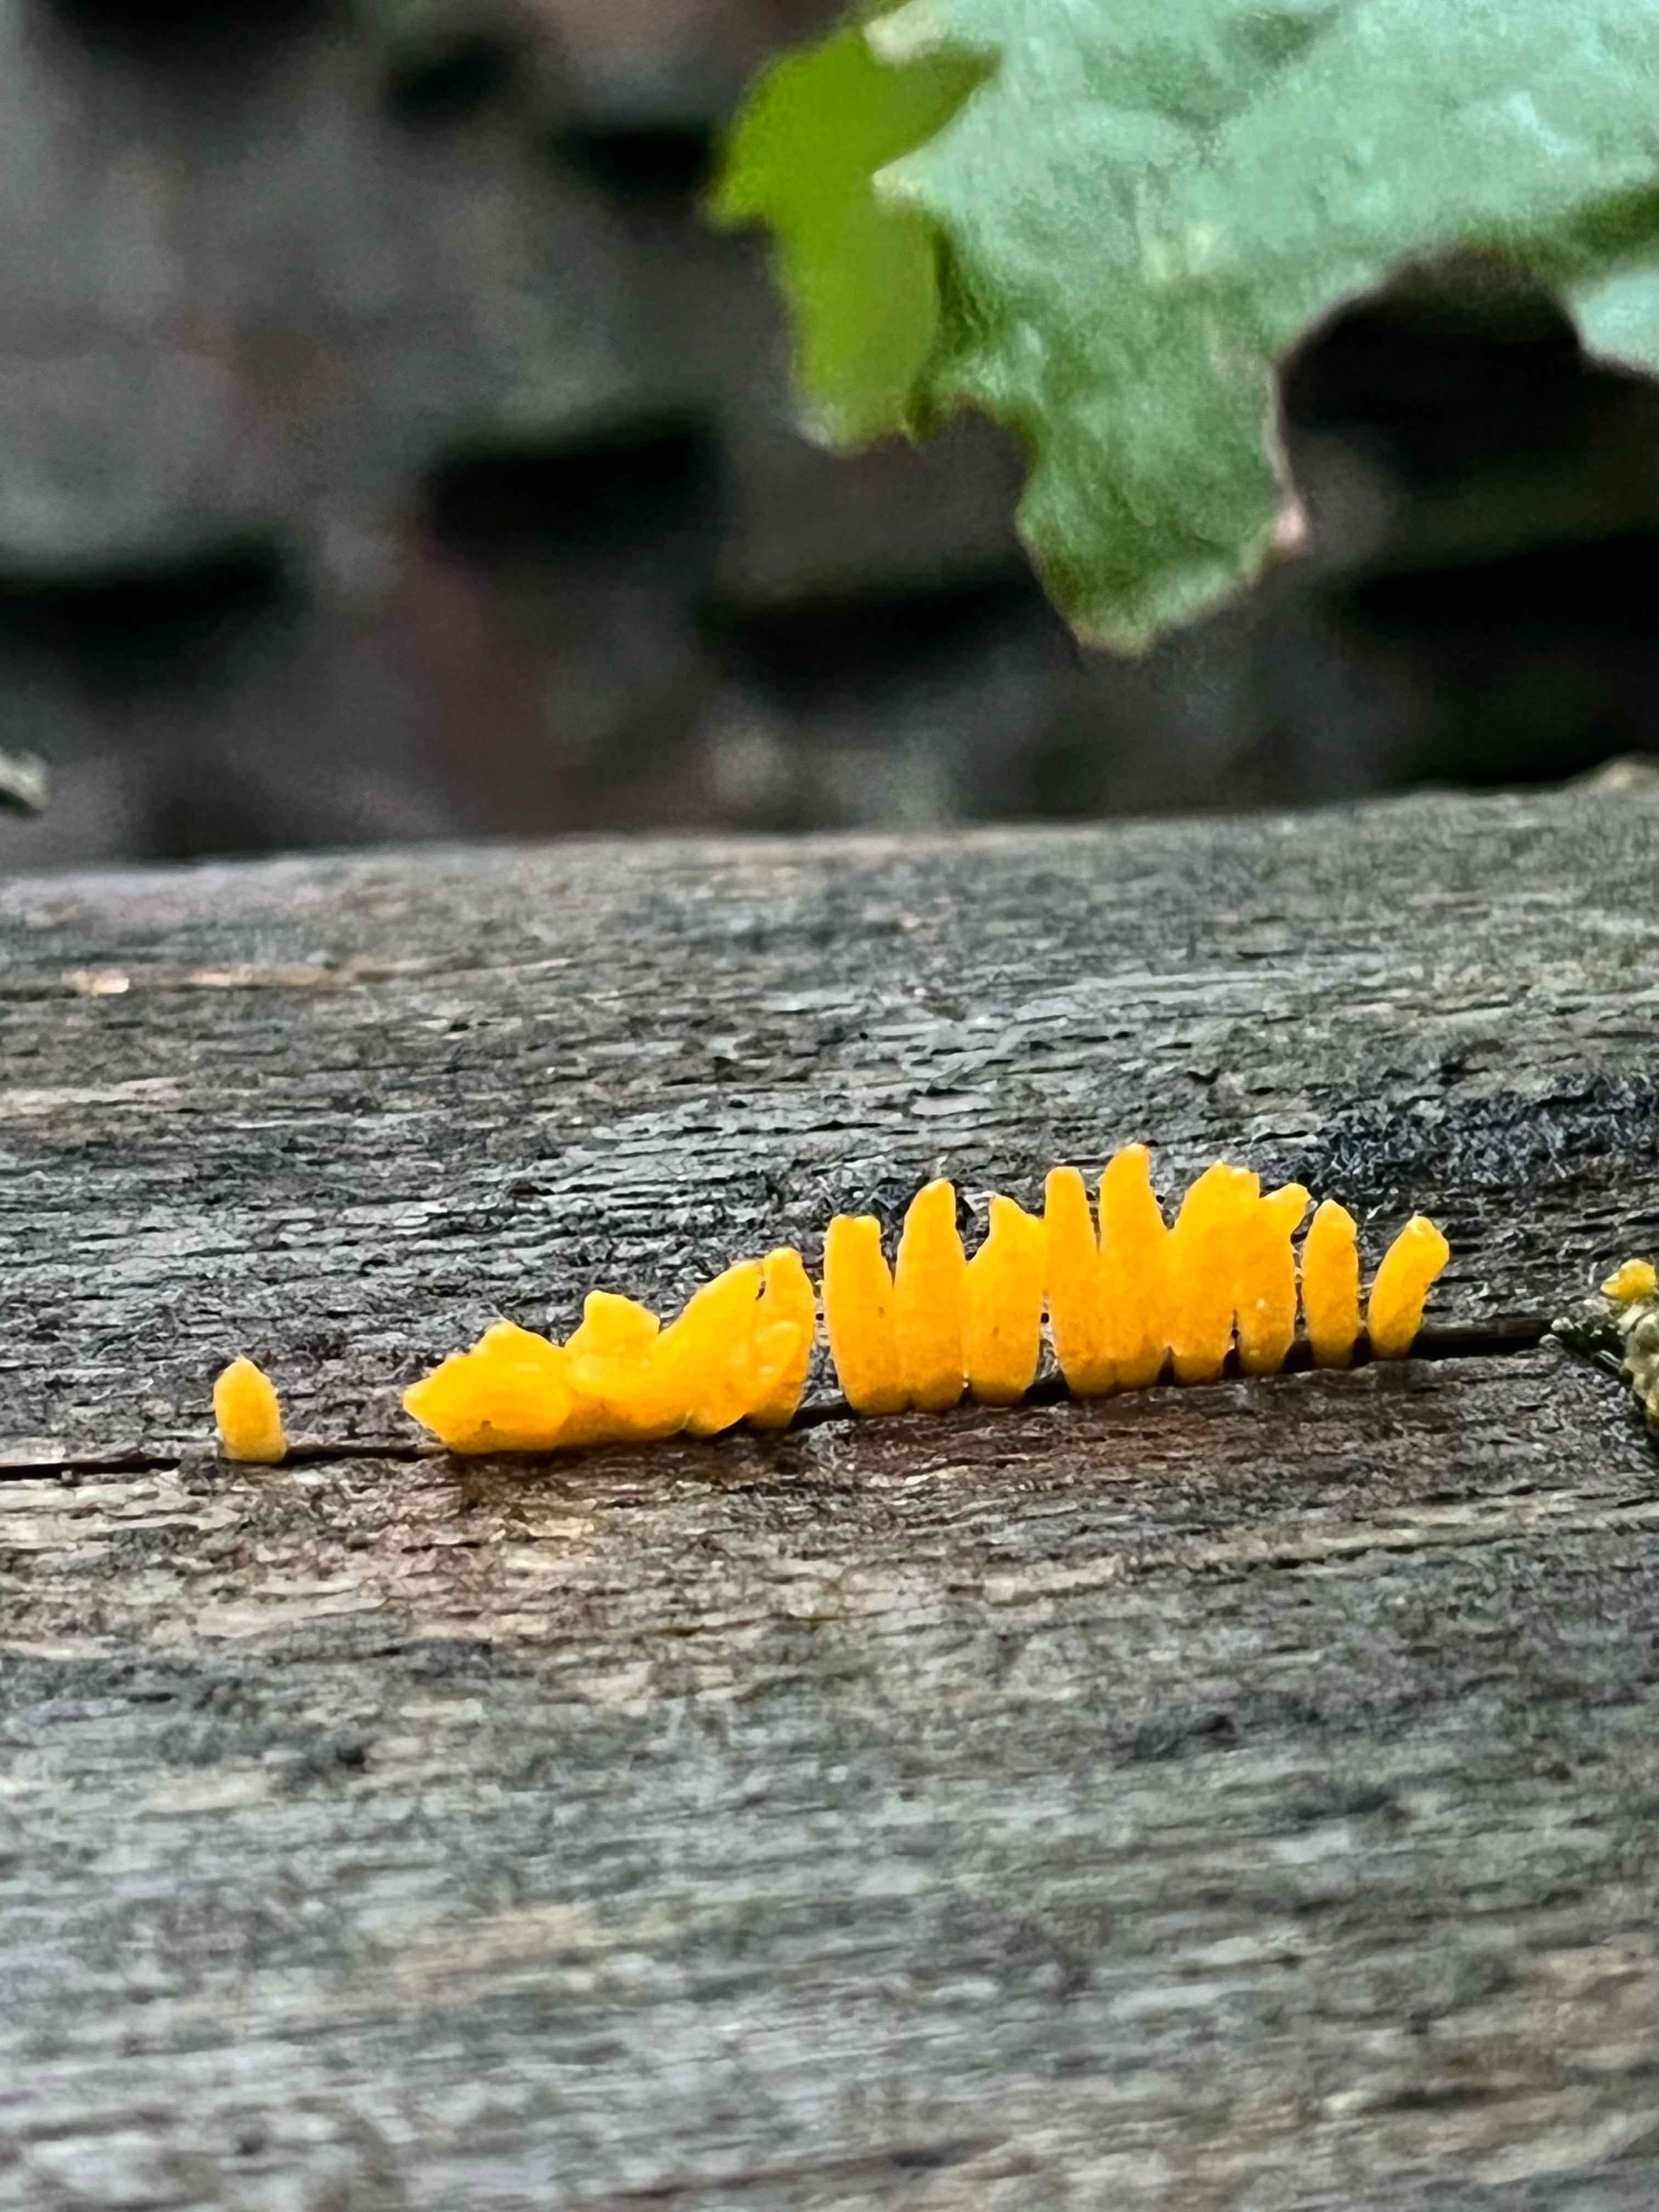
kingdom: Fungi
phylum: Basidiomycota
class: Dacrymycetes
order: Dacrymycetales
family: Dacrymycetaceae
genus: Calocera
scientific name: Calocera cornea
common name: liden guldgaffel
